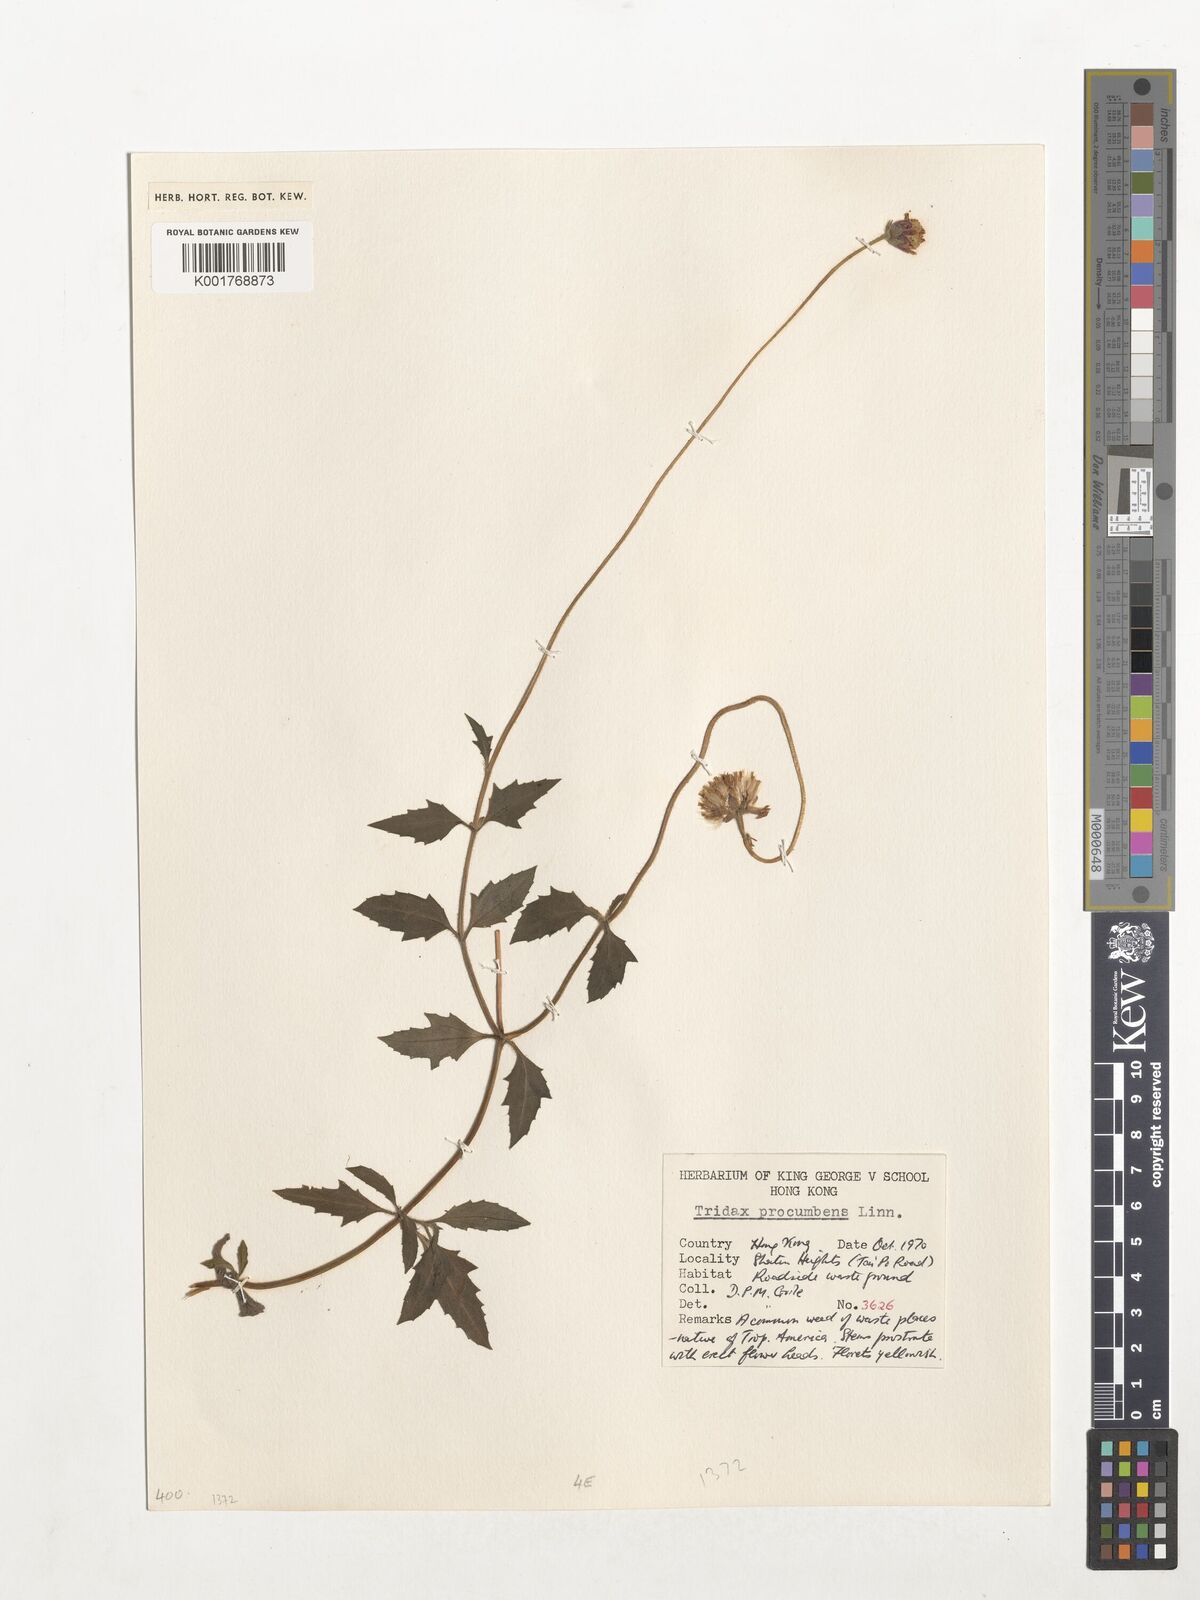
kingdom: Plantae
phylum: Tracheophyta
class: Magnoliopsida
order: Asterales
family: Asteraceae
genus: Tridax
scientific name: Tridax procumbens
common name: Coatbuttons
